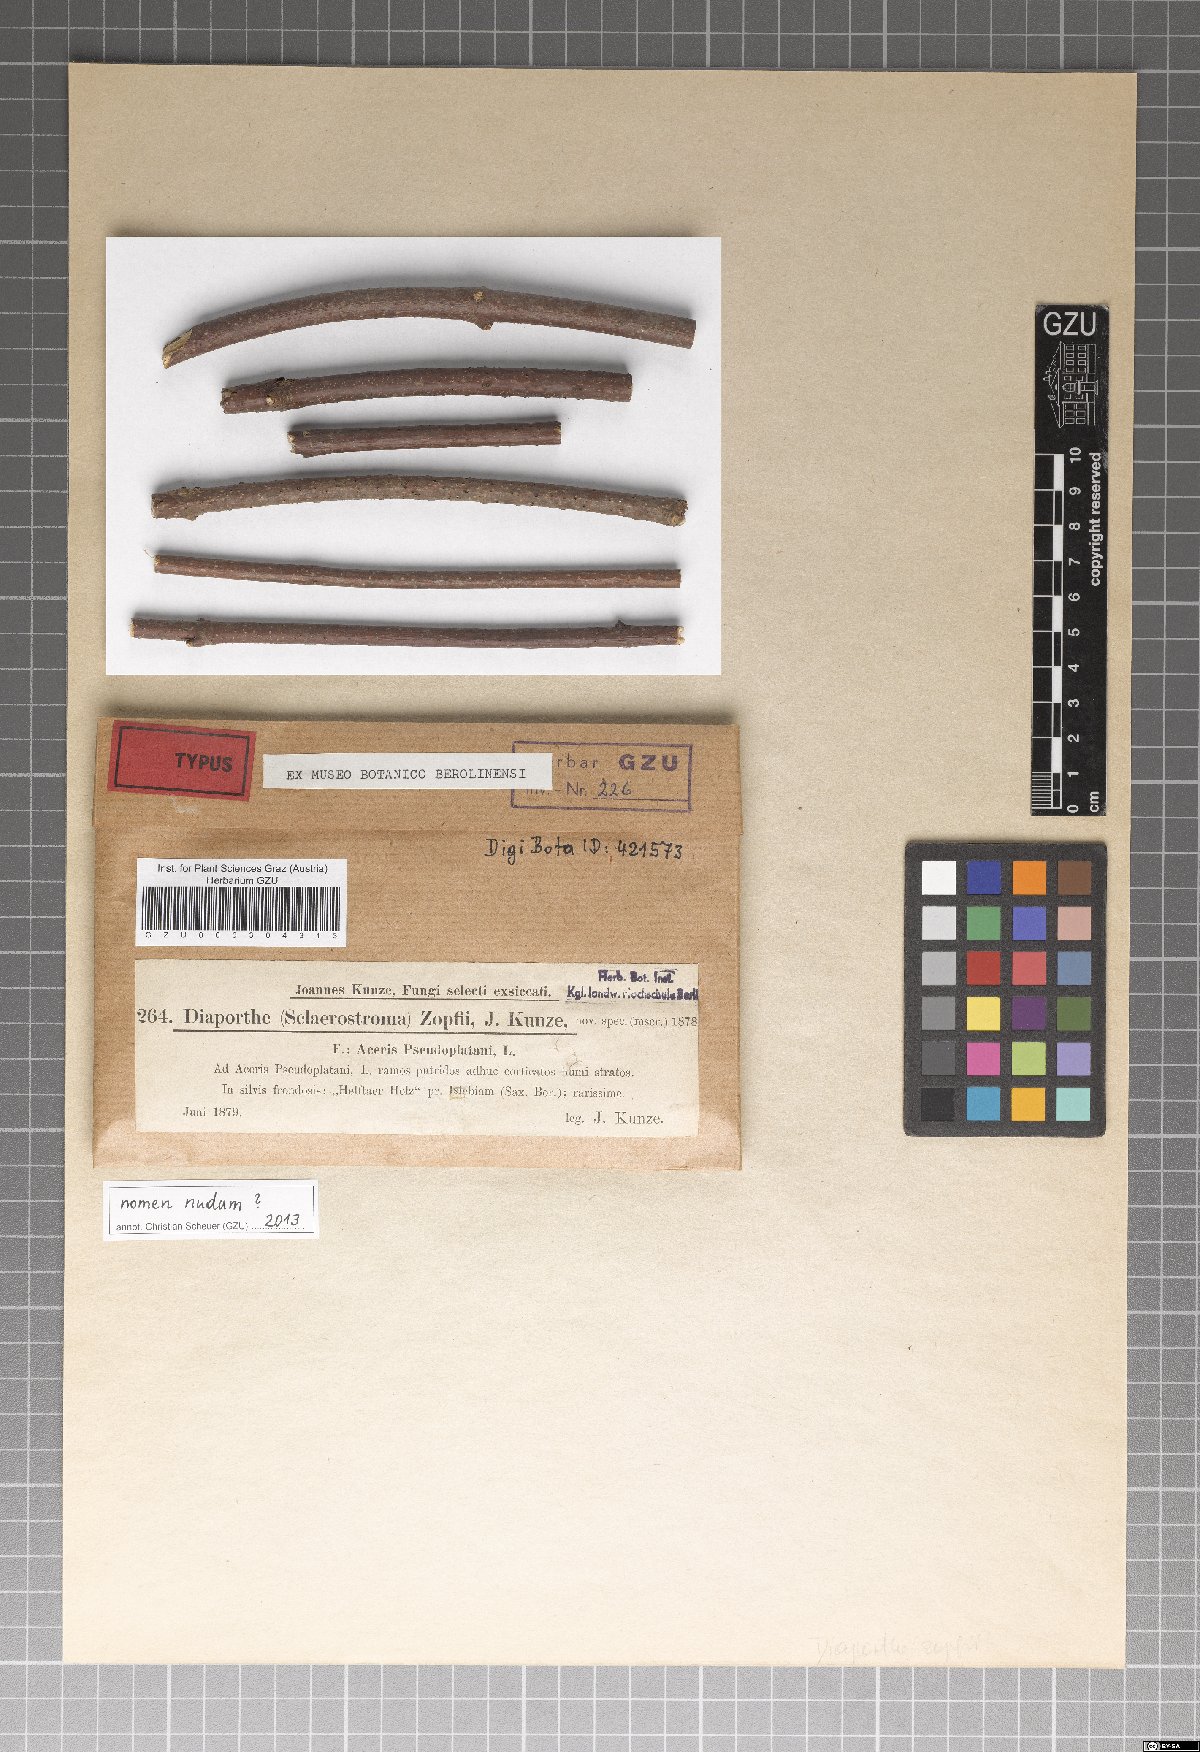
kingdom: Fungi
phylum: Ascomycota
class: Sordariomycetes
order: Diaporthales
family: Melanconidaceae
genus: Calospora
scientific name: Calospora zopfii
